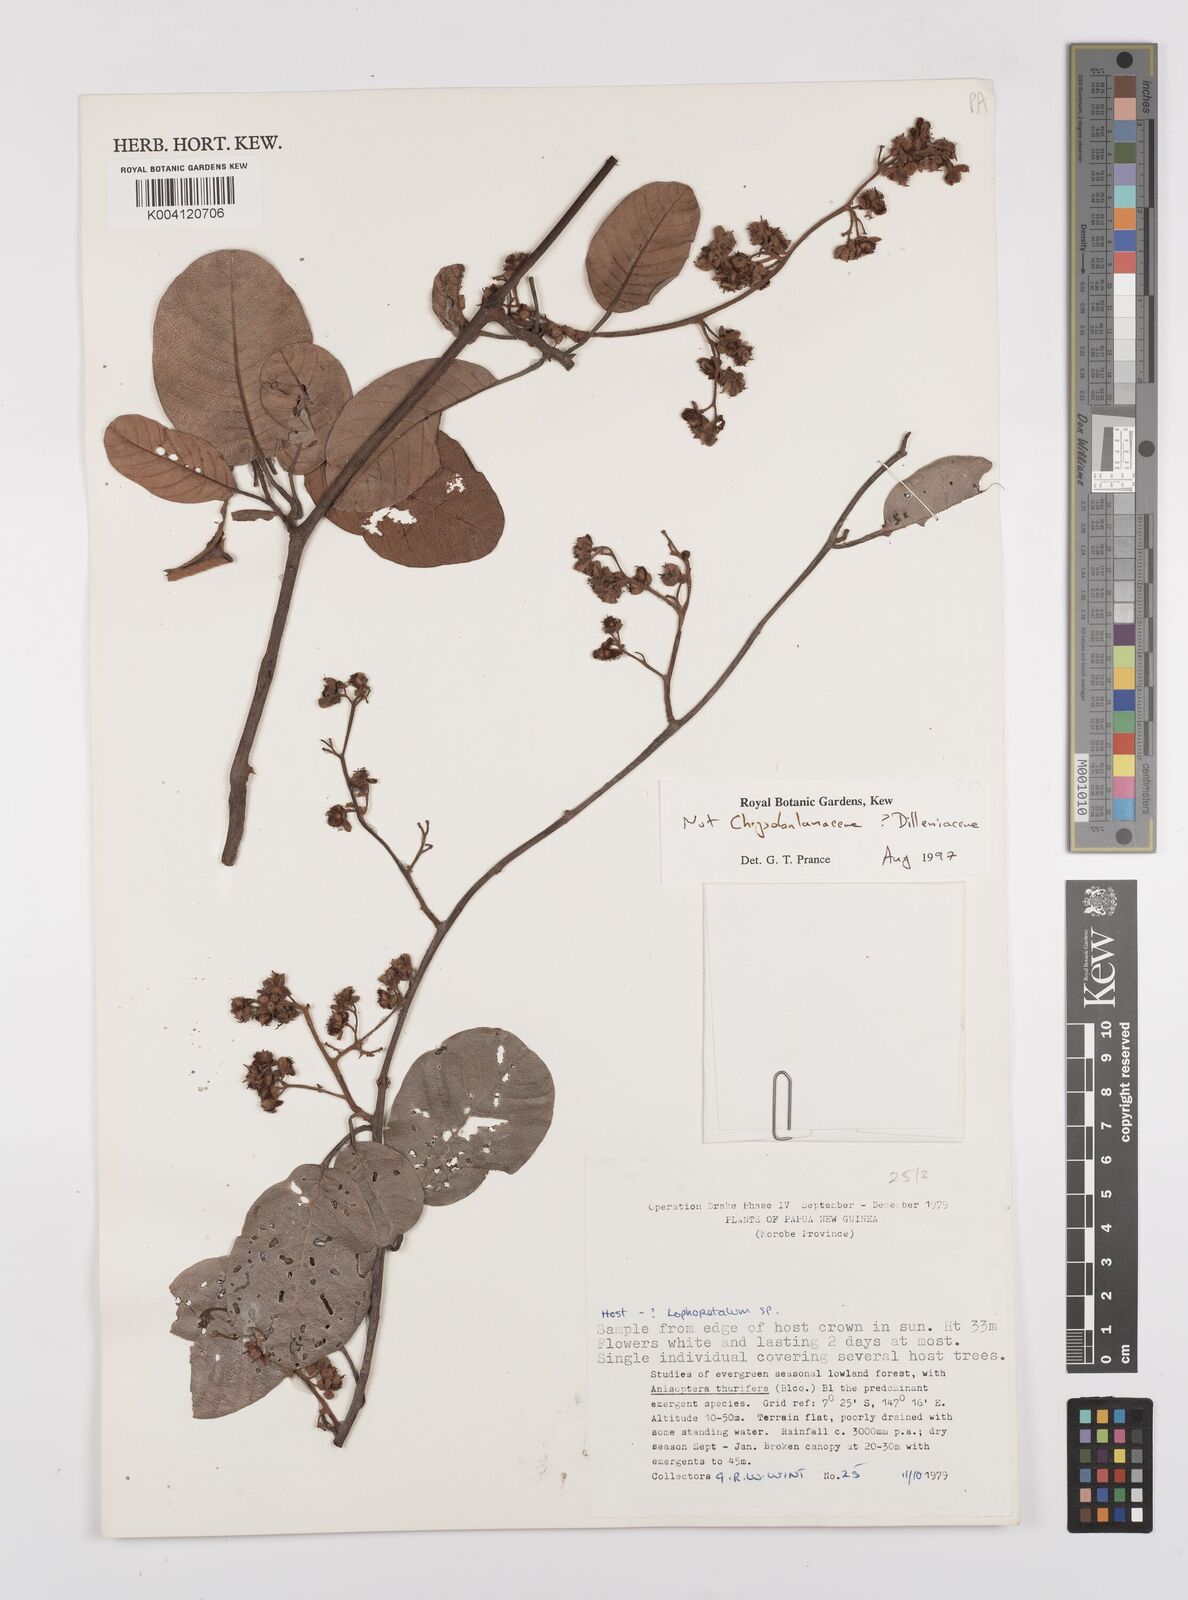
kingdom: Plantae
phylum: Tracheophyta
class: Magnoliopsida
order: Dilleniales
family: Dilleniaceae
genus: Tetracera
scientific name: Tetracera
